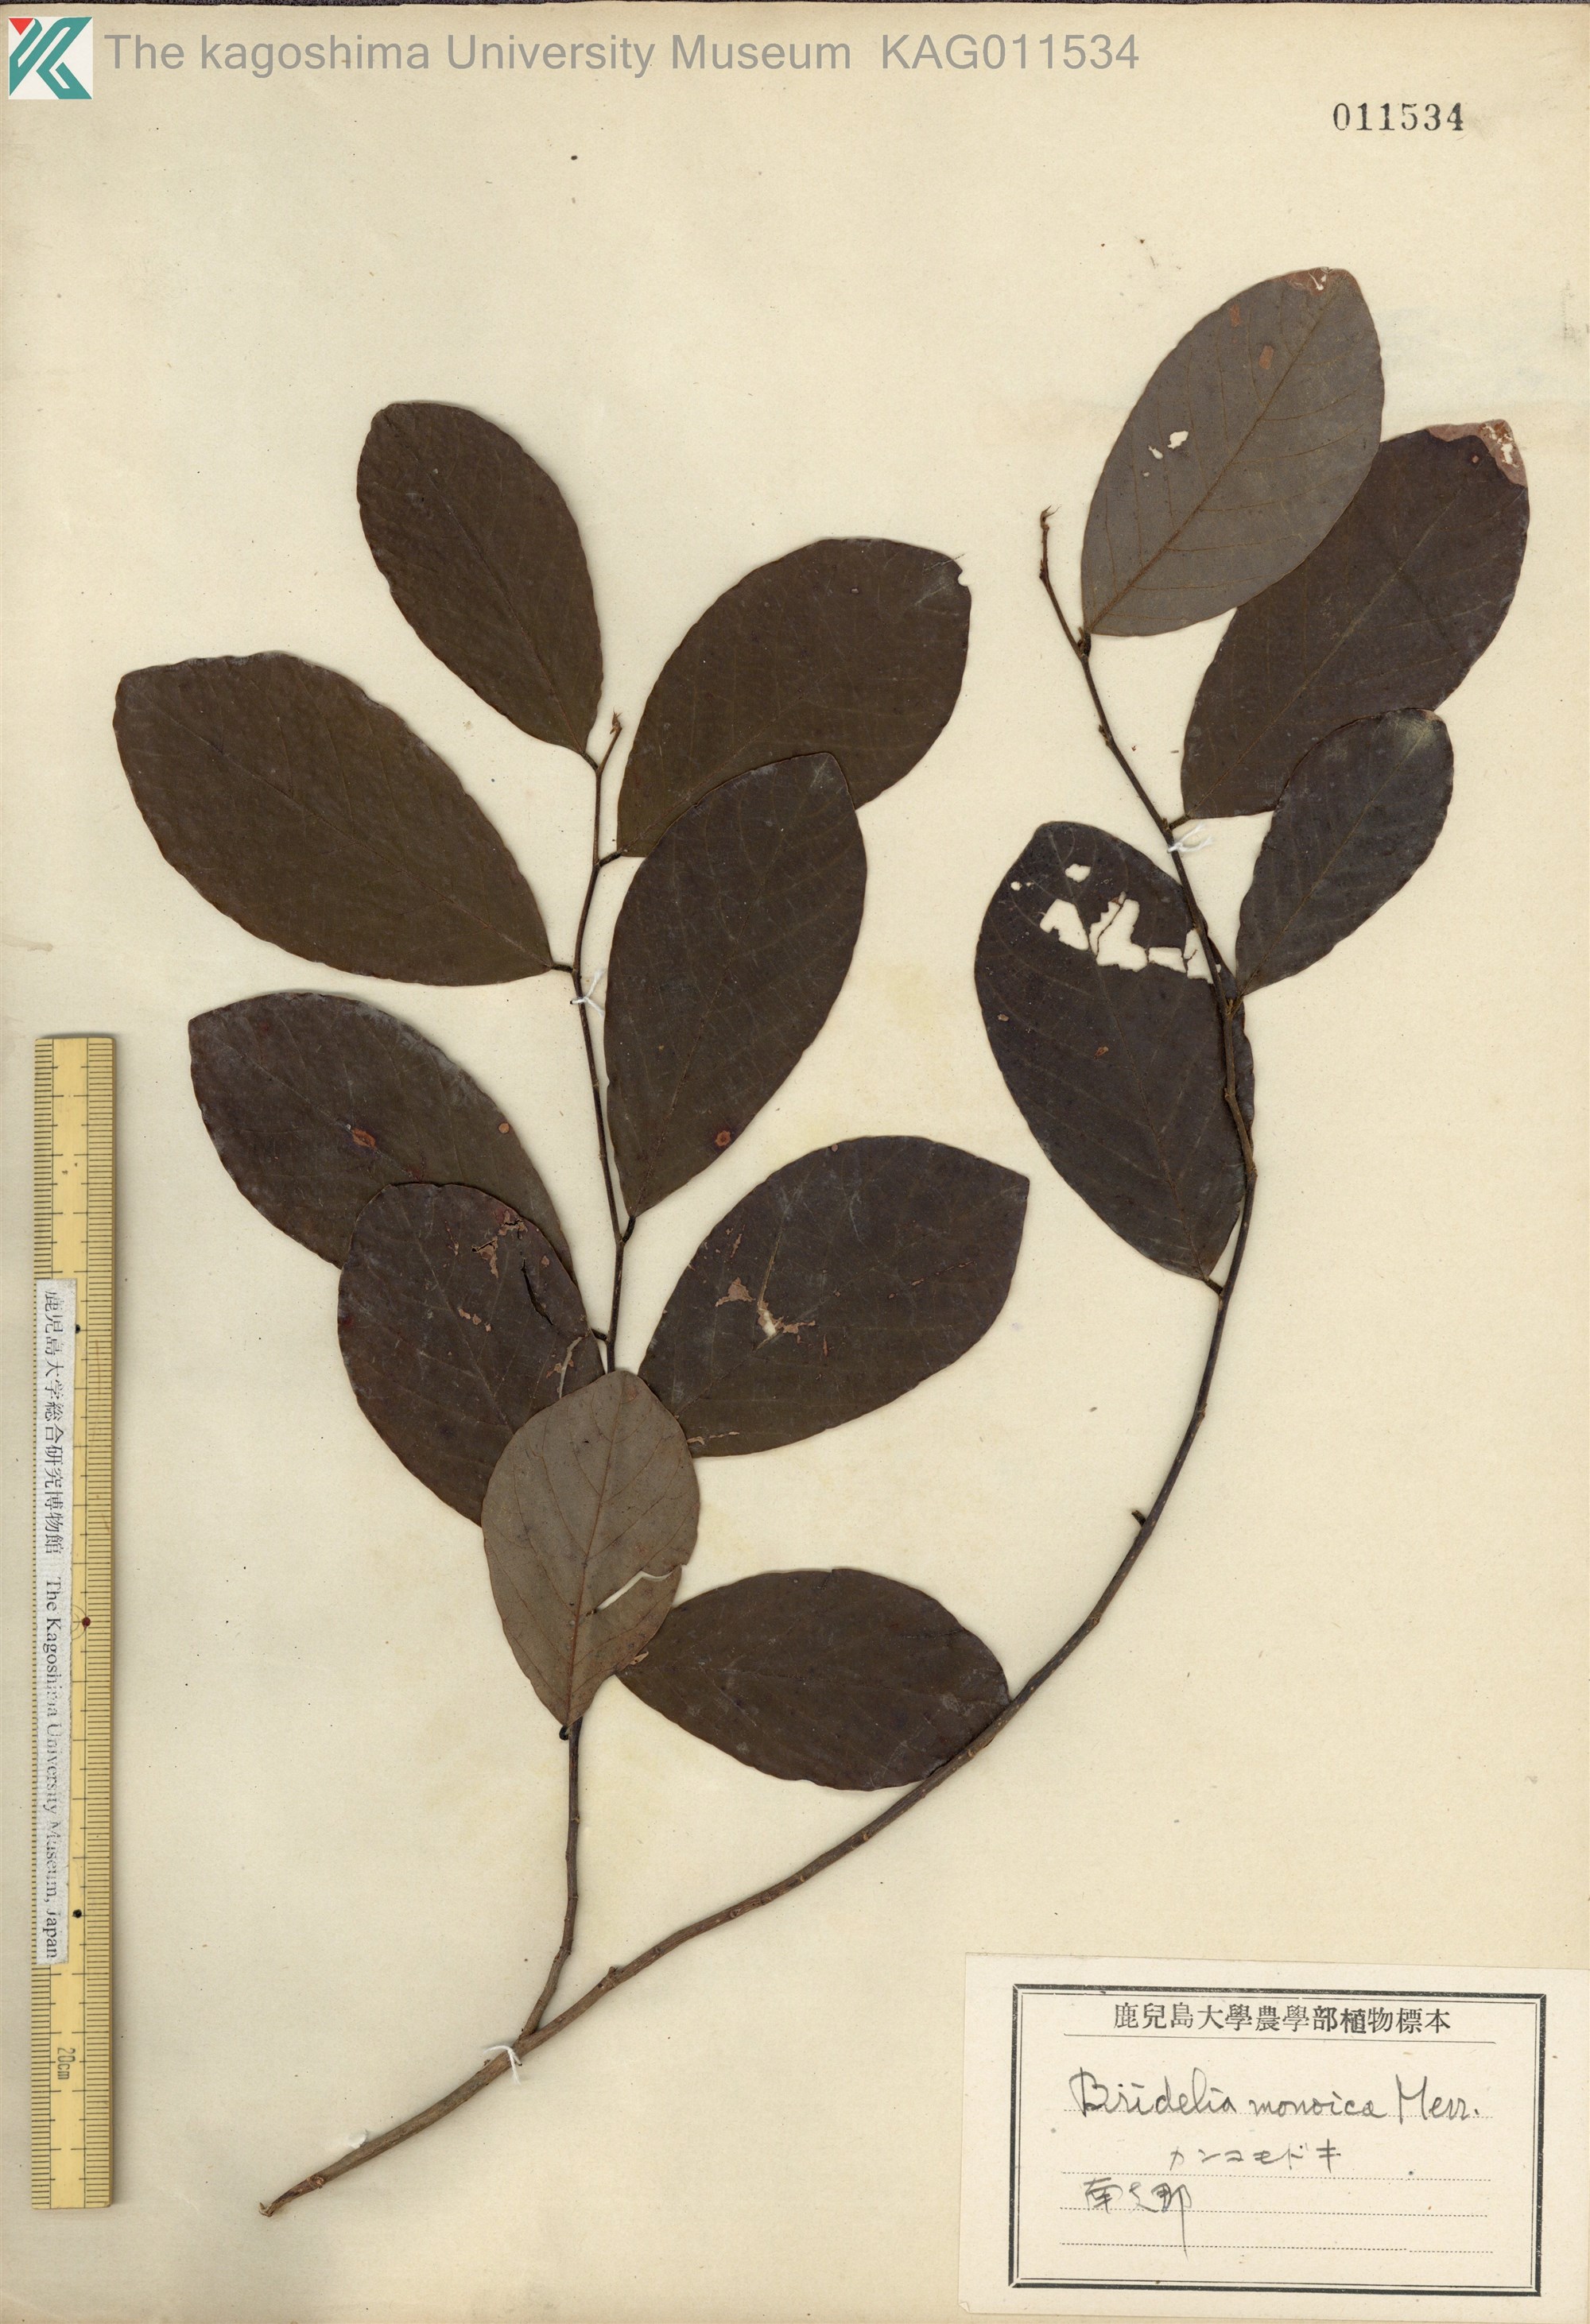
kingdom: Plantae
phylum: Tracheophyta
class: Magnoliopsida
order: Malpighiales
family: Phyllanthaceae
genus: Cleistanthus
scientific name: Cleistanthus monoicus
